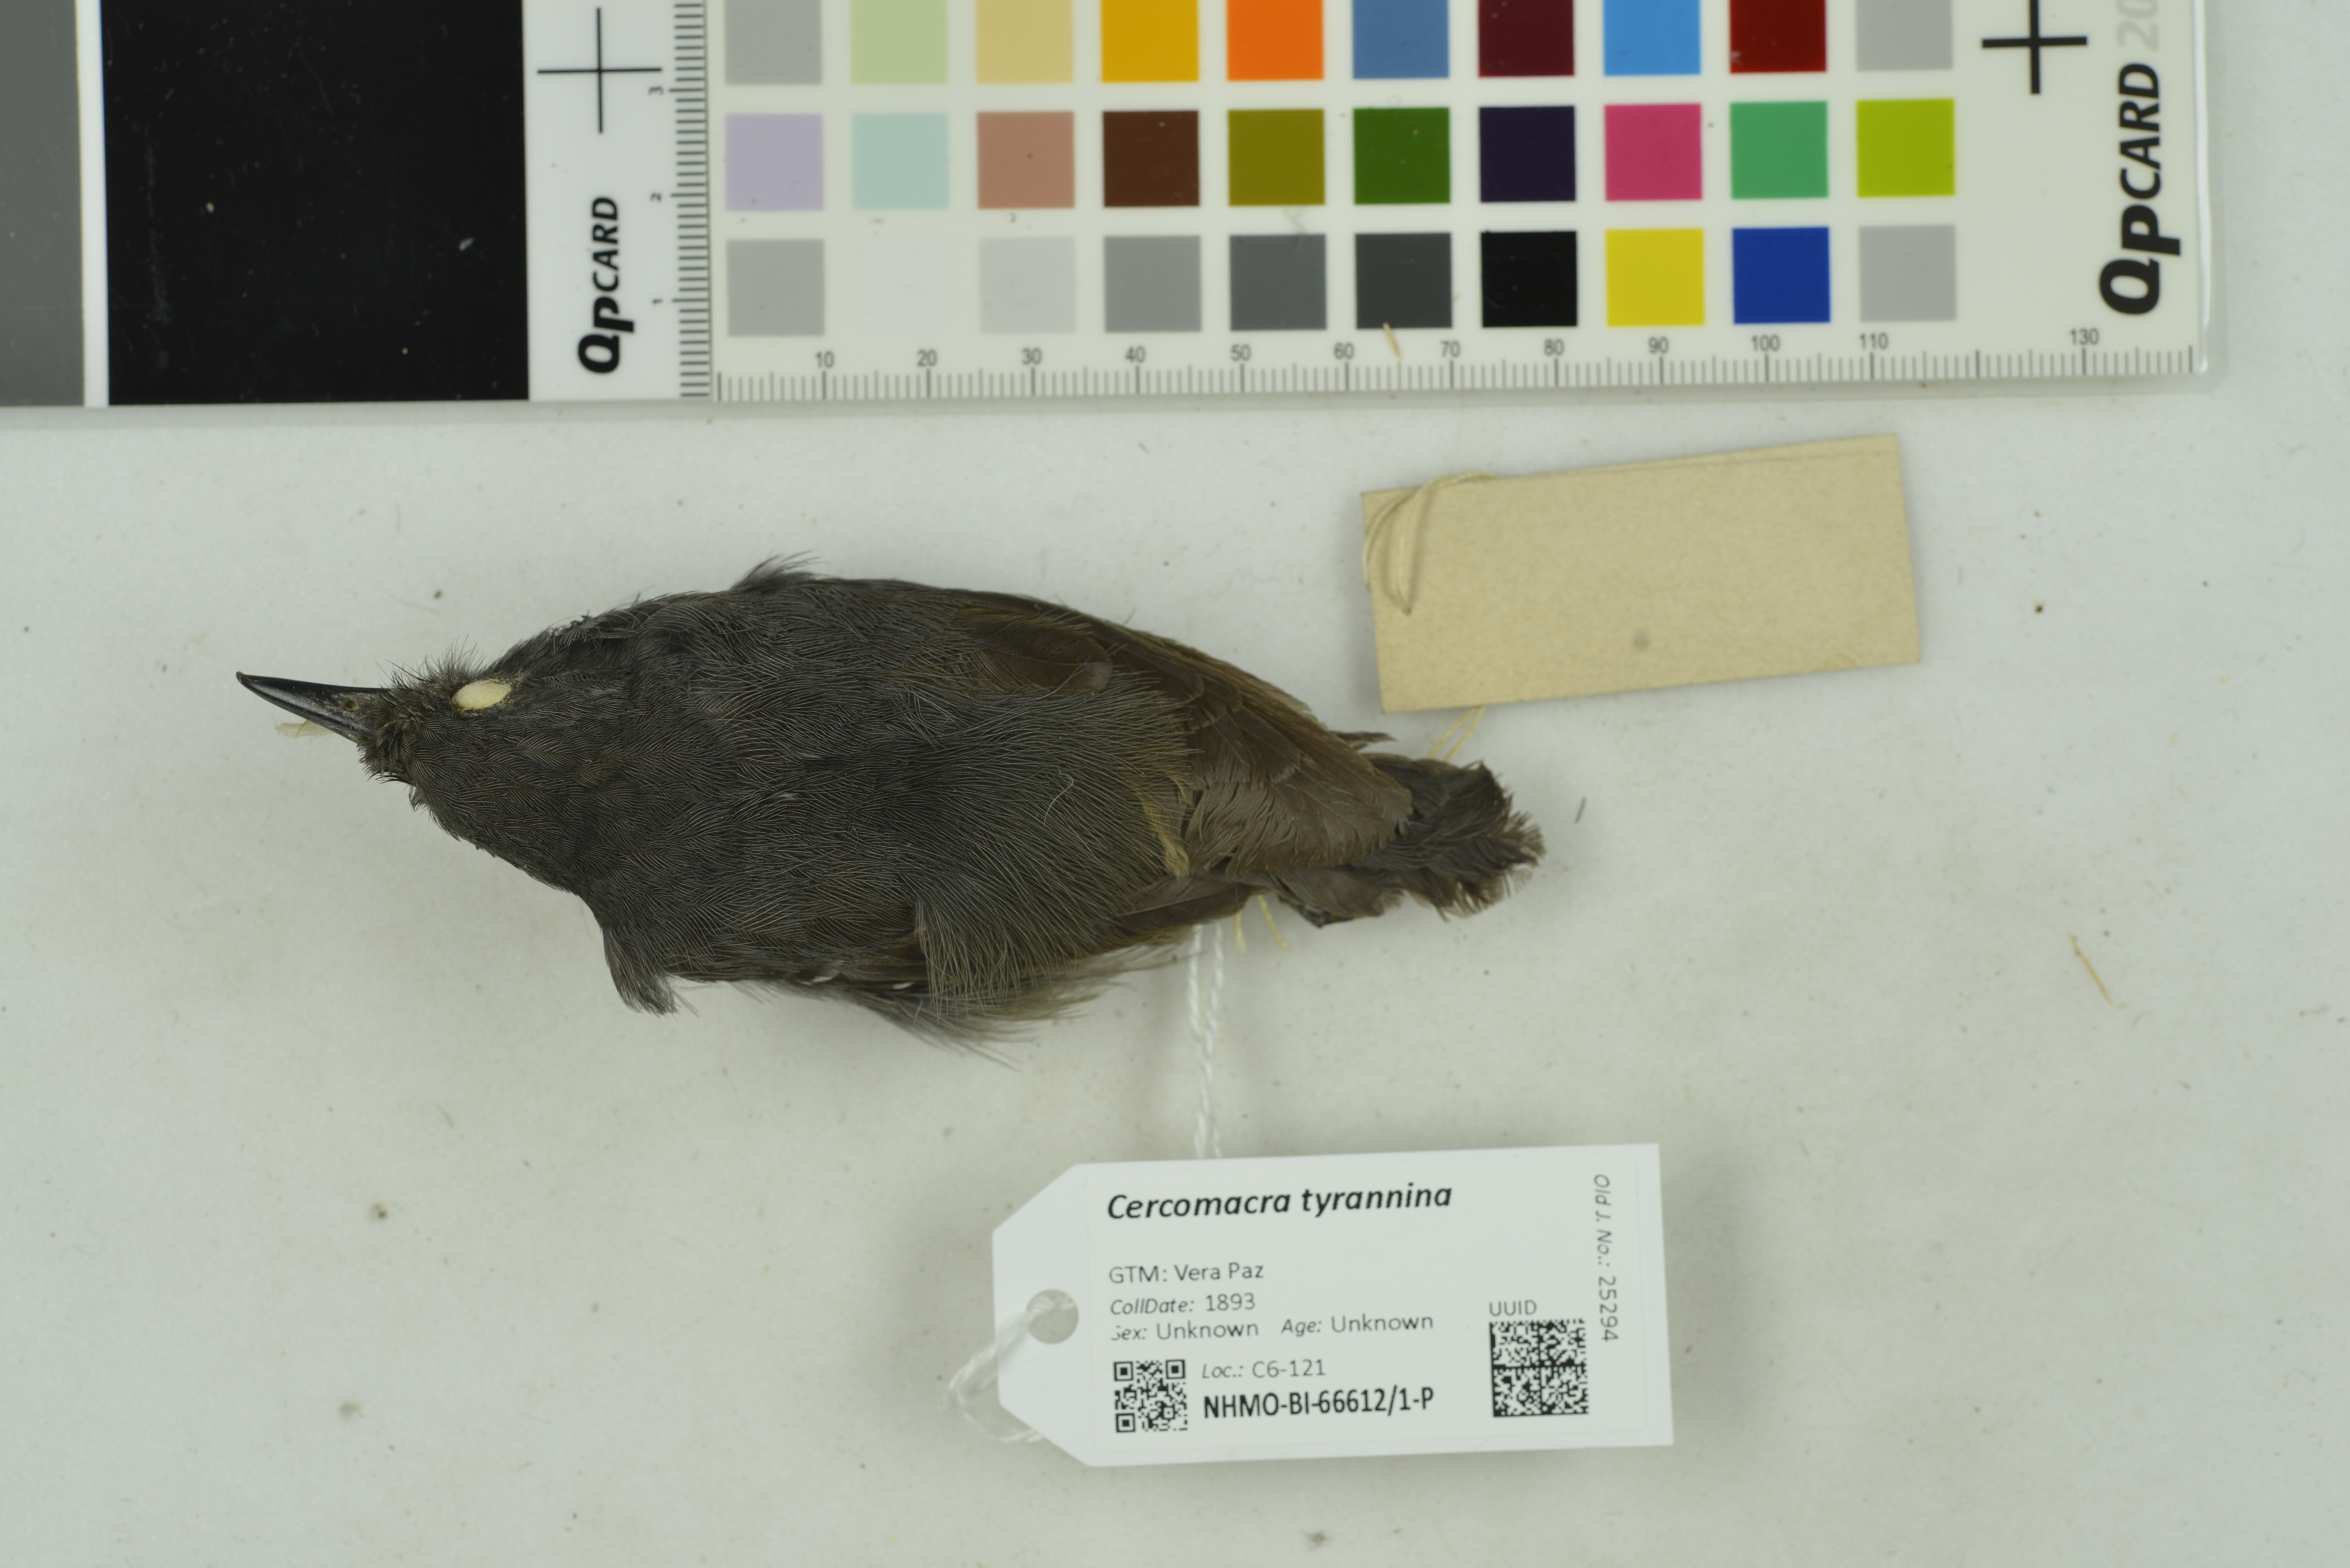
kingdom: Animalia
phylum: Chordata
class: Aves
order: Passeriformes
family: Thamnophilidae
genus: Cercomacra
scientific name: Cercomacra tyrannina
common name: Dusky antbird
